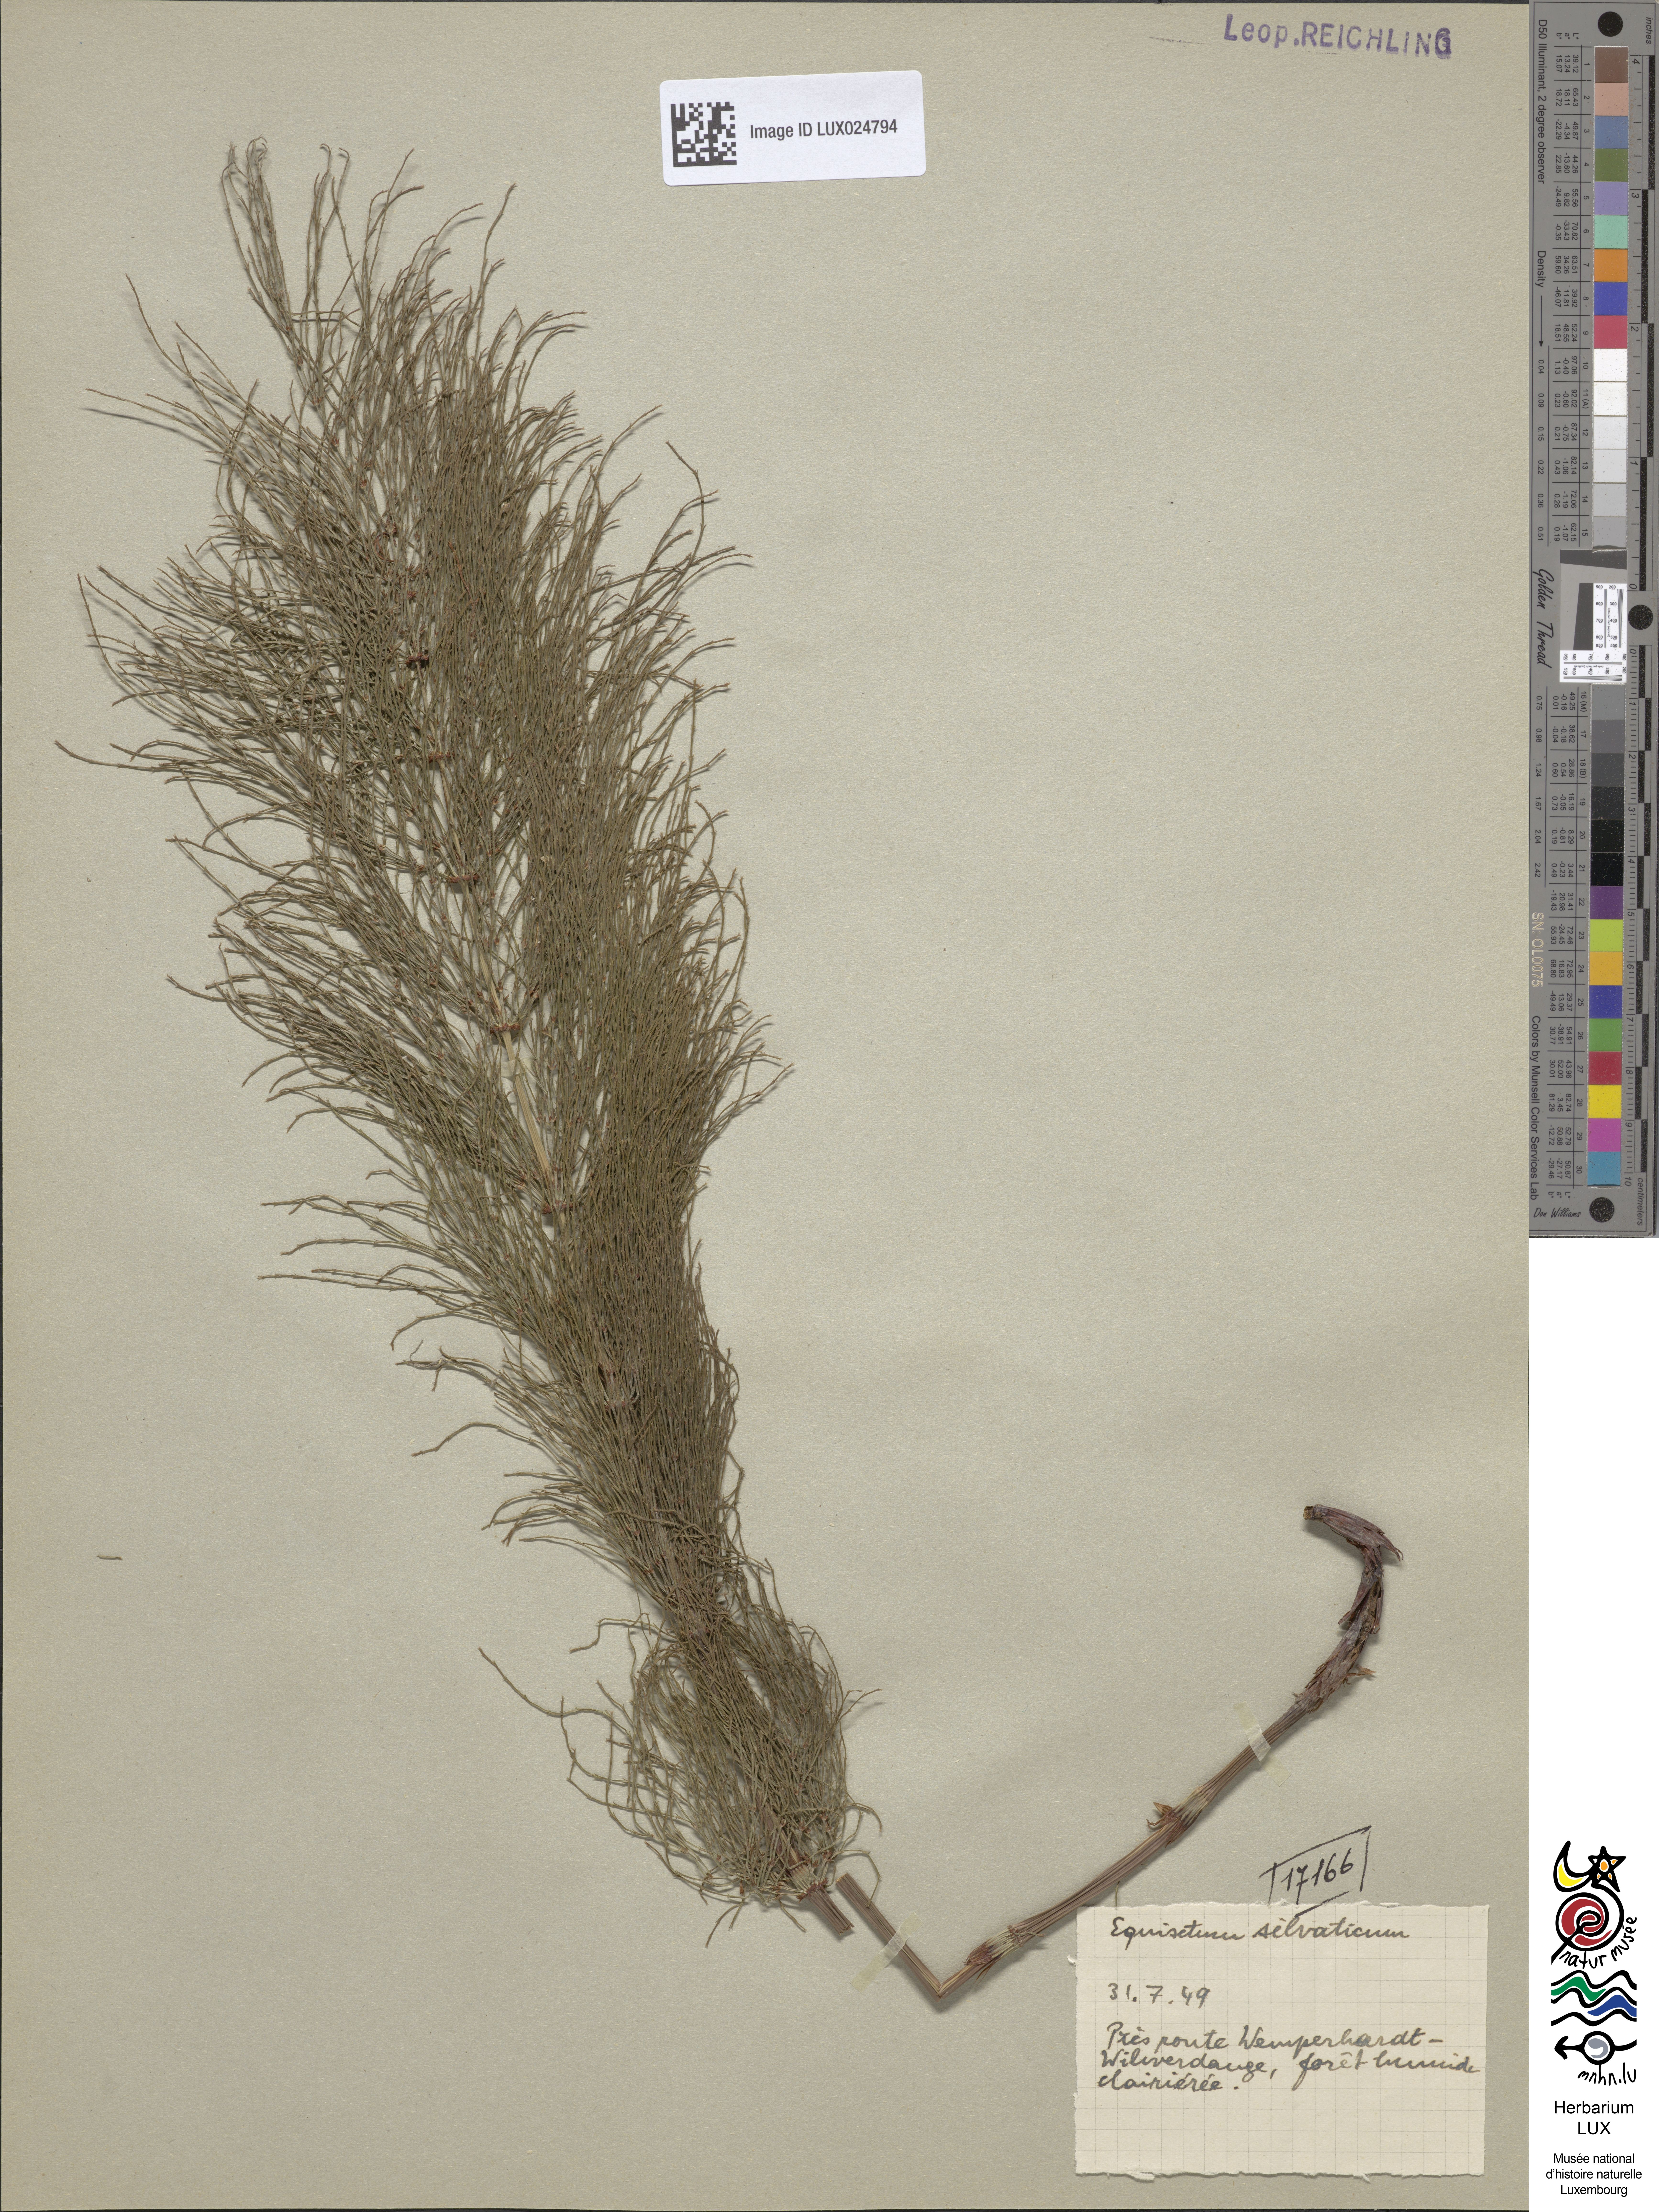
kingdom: Plantae
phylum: Tracheophyta
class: Polypodiopsida
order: Equisetales
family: Equisetaceae
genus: Equisetum
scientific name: Equisetum sylvaticum
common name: Wood horsetail
